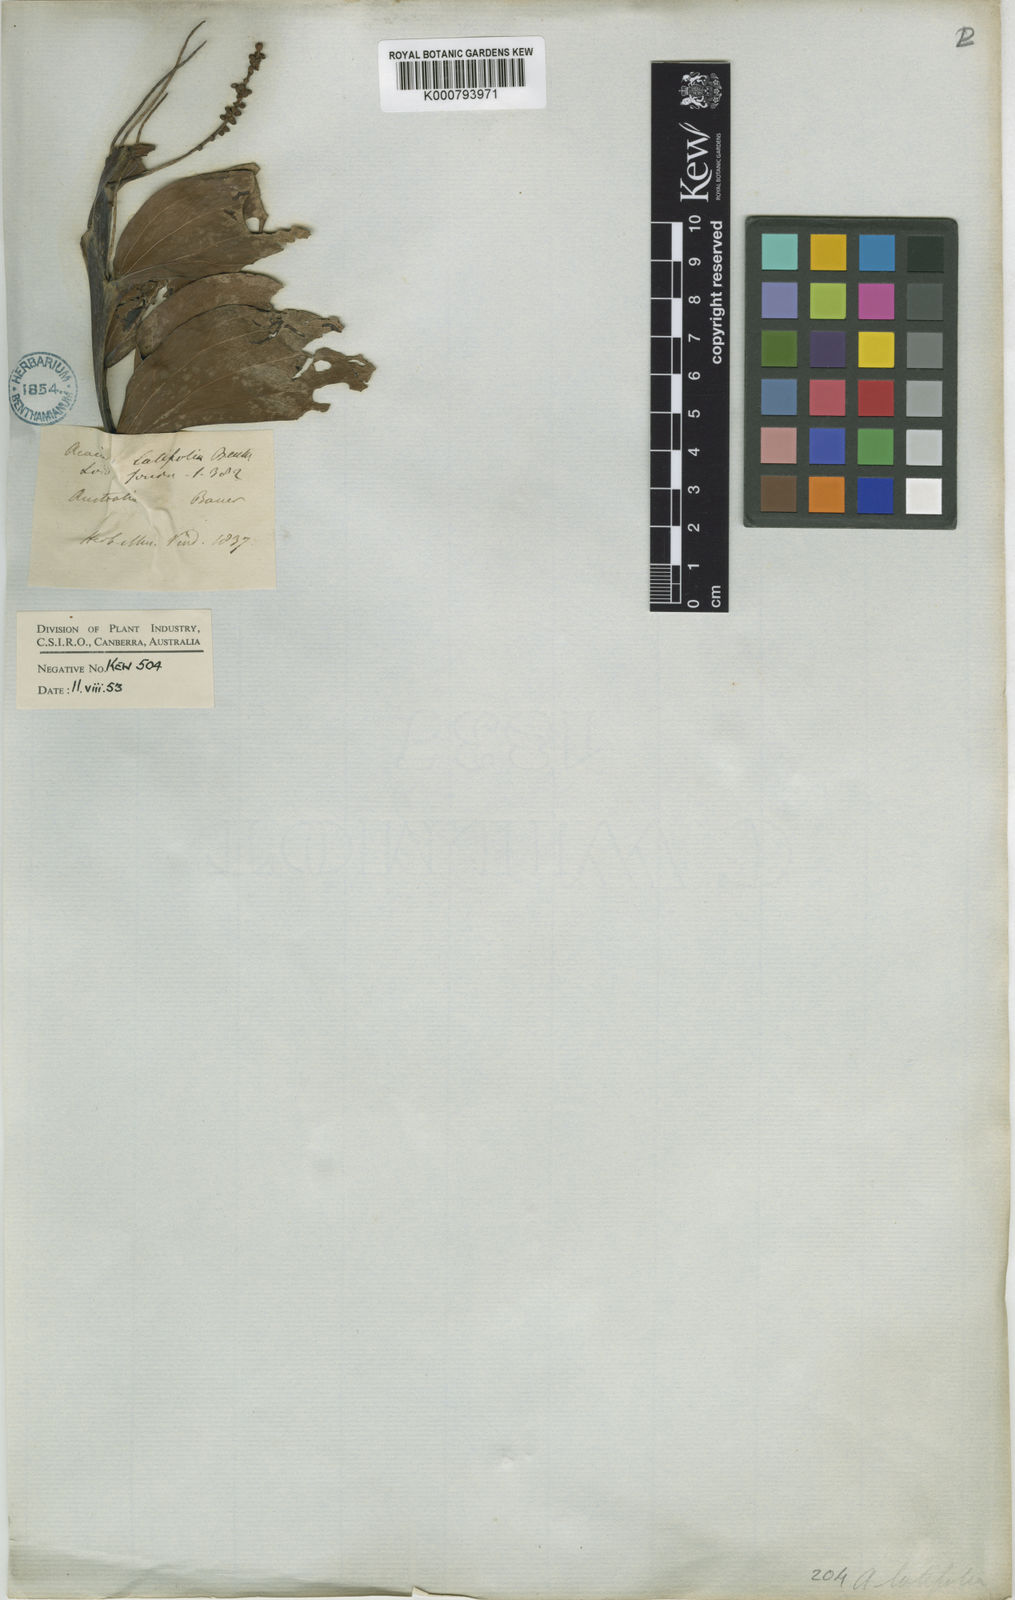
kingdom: Plantae
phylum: Tracheophyta
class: Magnoliopsida
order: Fabales
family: Fabaceae
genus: Acacia
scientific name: Acacia latifolia
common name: Broadleaf acacia
